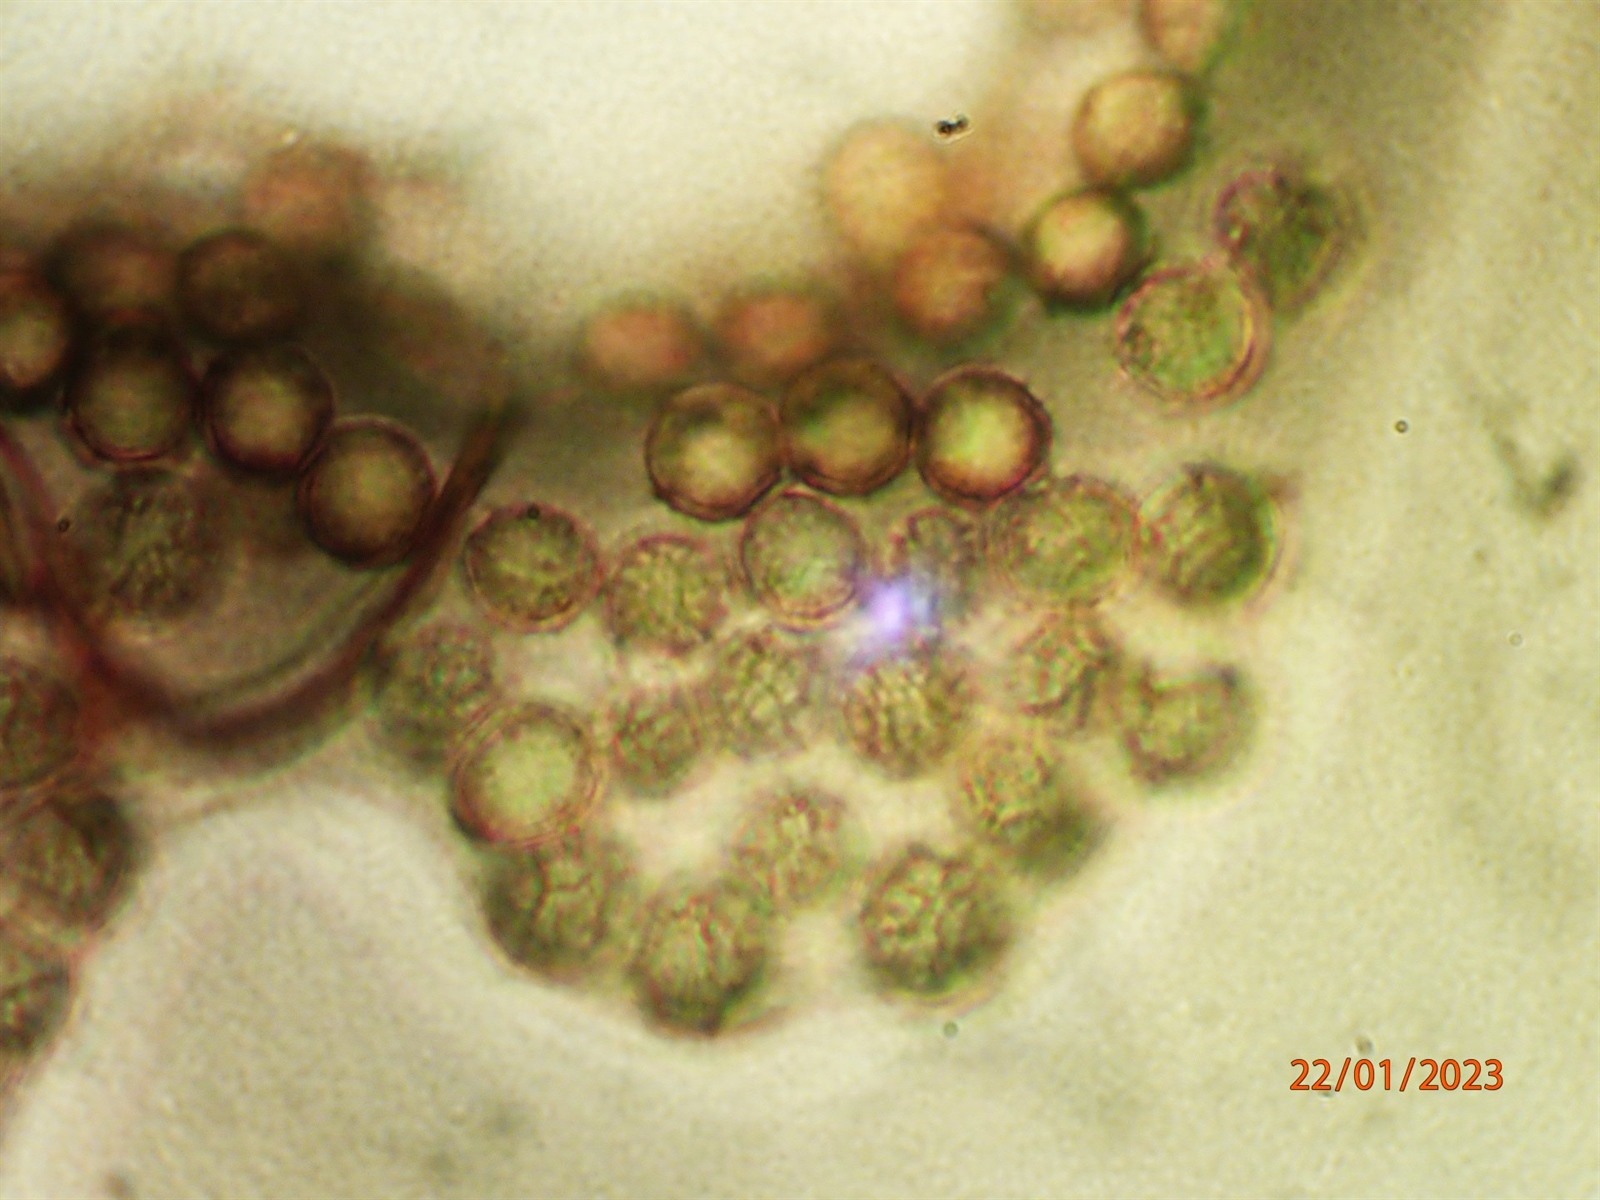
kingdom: Protozoa
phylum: Mycetozoa
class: Myxomycetes
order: Stemonitidales
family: Stemonitidaceae
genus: Comatricha
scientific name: Comatricha reticulospora
